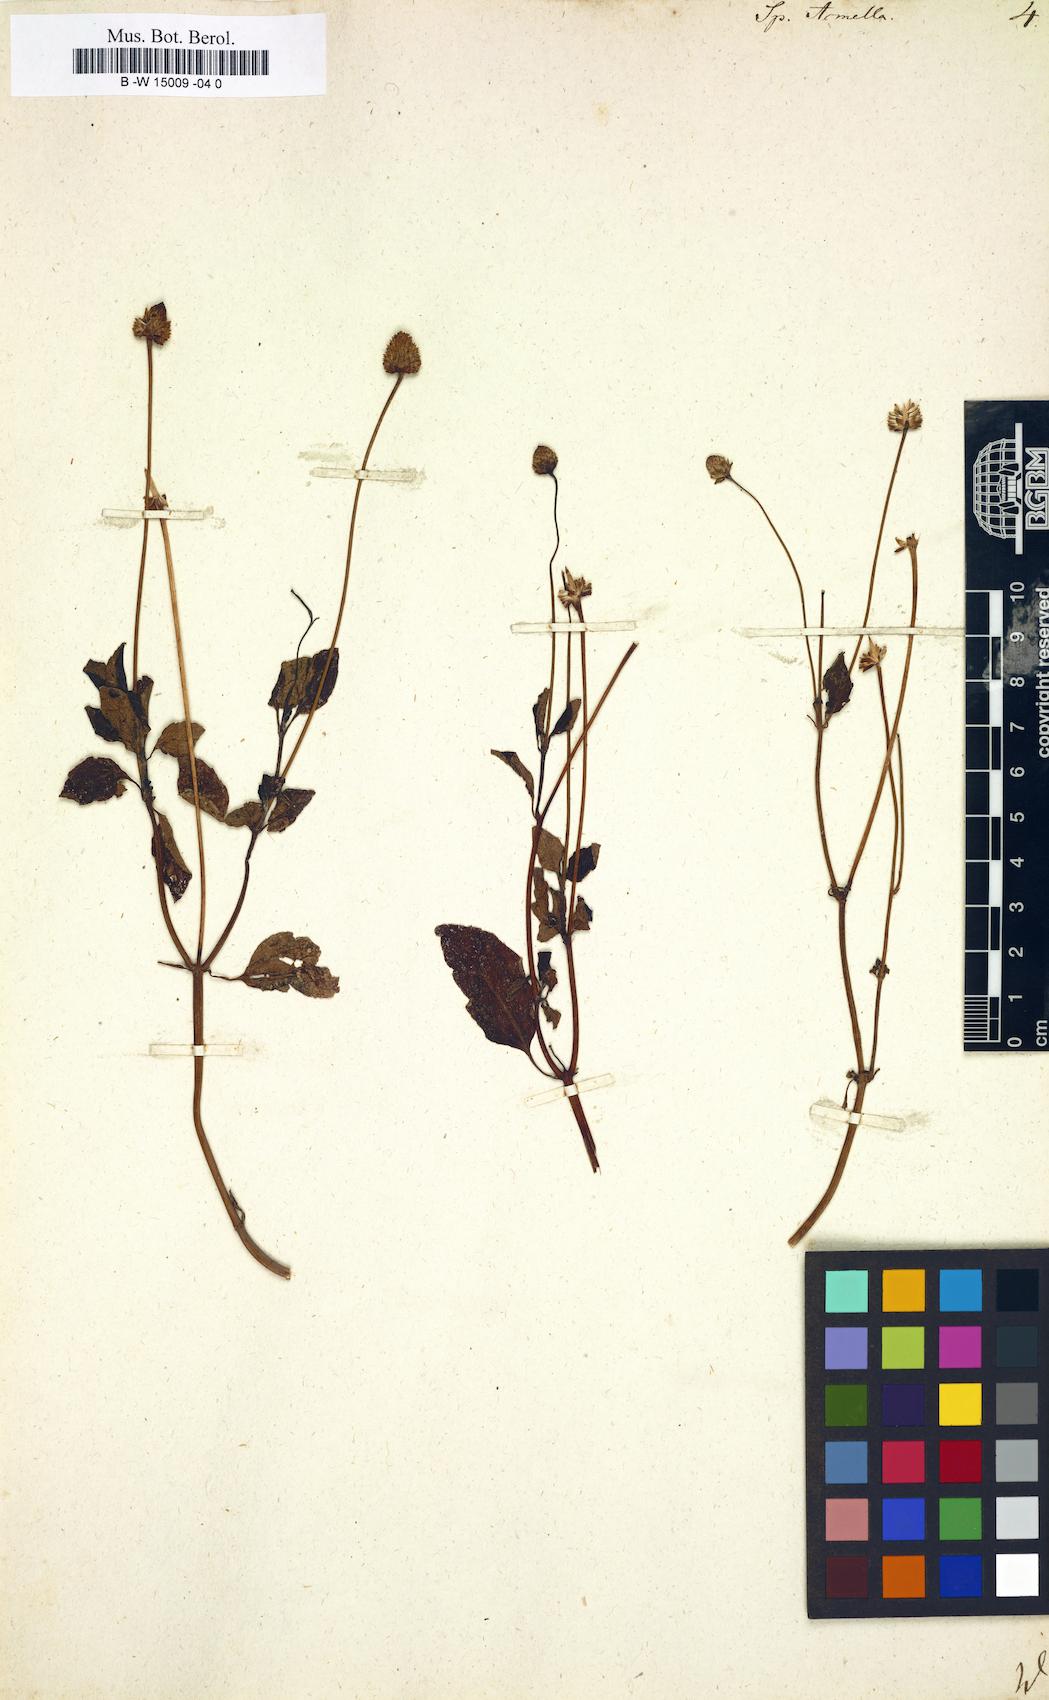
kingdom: Plantae
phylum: Tracheophyta
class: Magnoliopsida
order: Asterales
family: Asteraceae
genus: Spilanthes
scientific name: Spilanthes acmella
